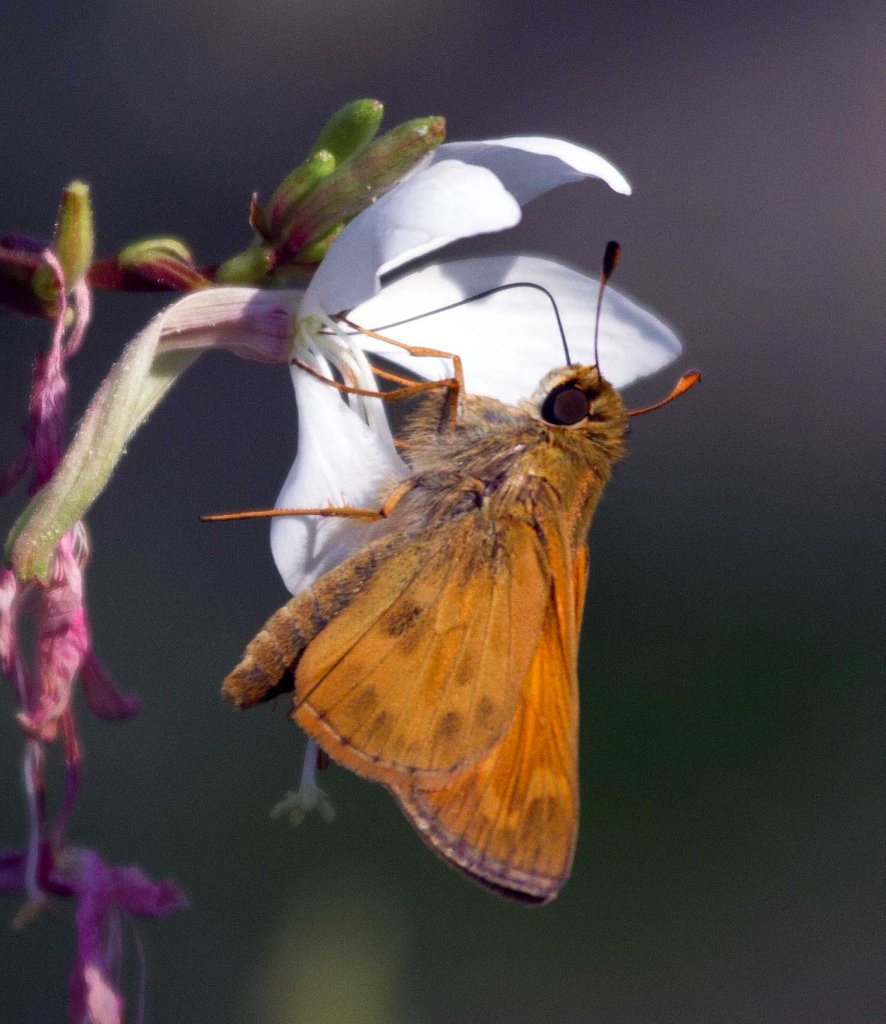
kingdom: Animalia
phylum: Arthropoda
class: Insecta
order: Lepidoptera
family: Hesperiidae
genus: Atalopedes
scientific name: Atalopedes campestris
